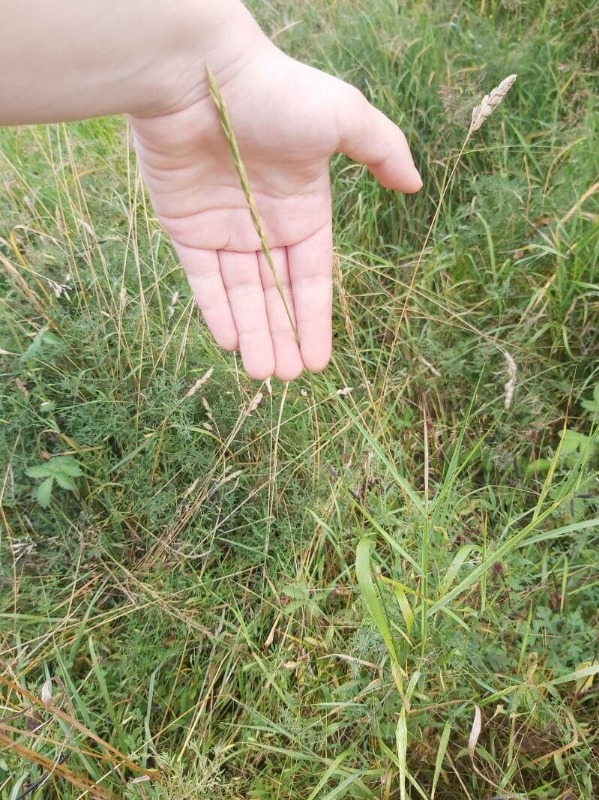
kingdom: Plantae
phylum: Tracheophyta
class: Liliopsida
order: Poales
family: Poaceae
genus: Elymus
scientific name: Elymus repens
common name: Almindelig kvik
